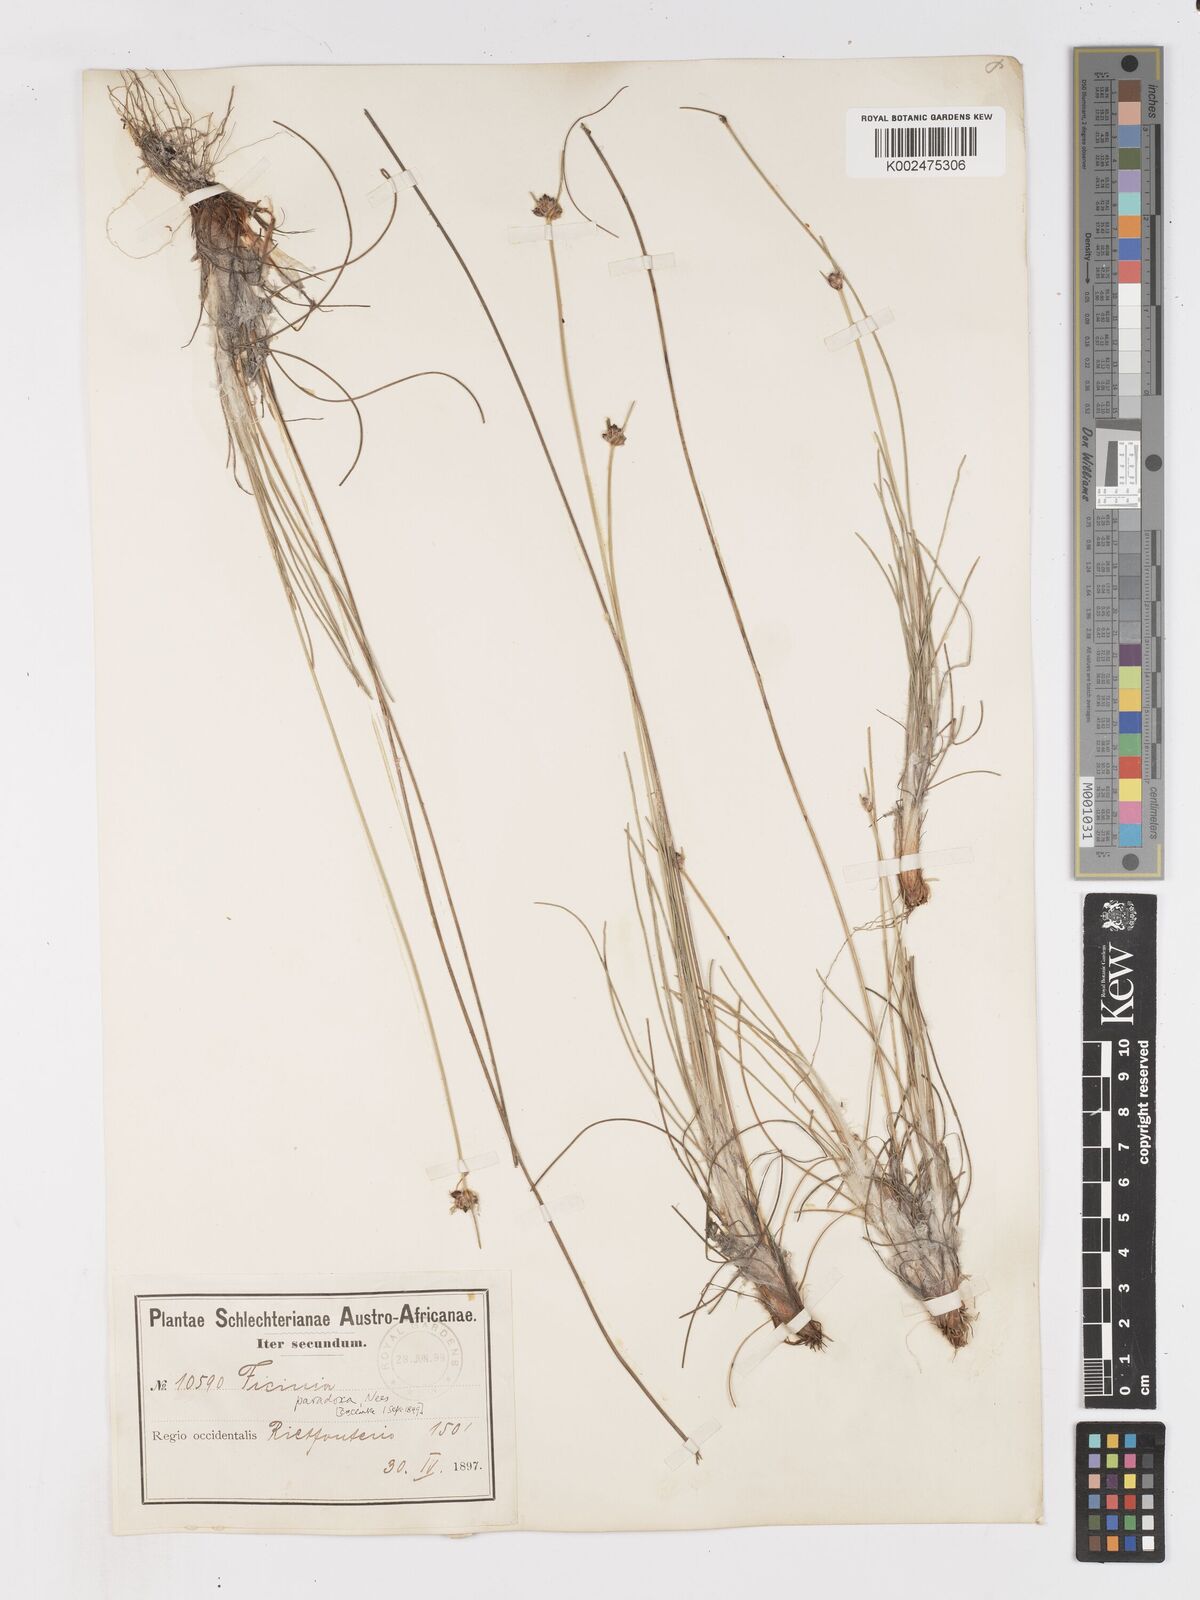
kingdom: Plantae
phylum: Tracheophyta
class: Liliopsida
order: Poales
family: Cyperaceae
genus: Ficinia
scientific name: Ficinia paradoxa
